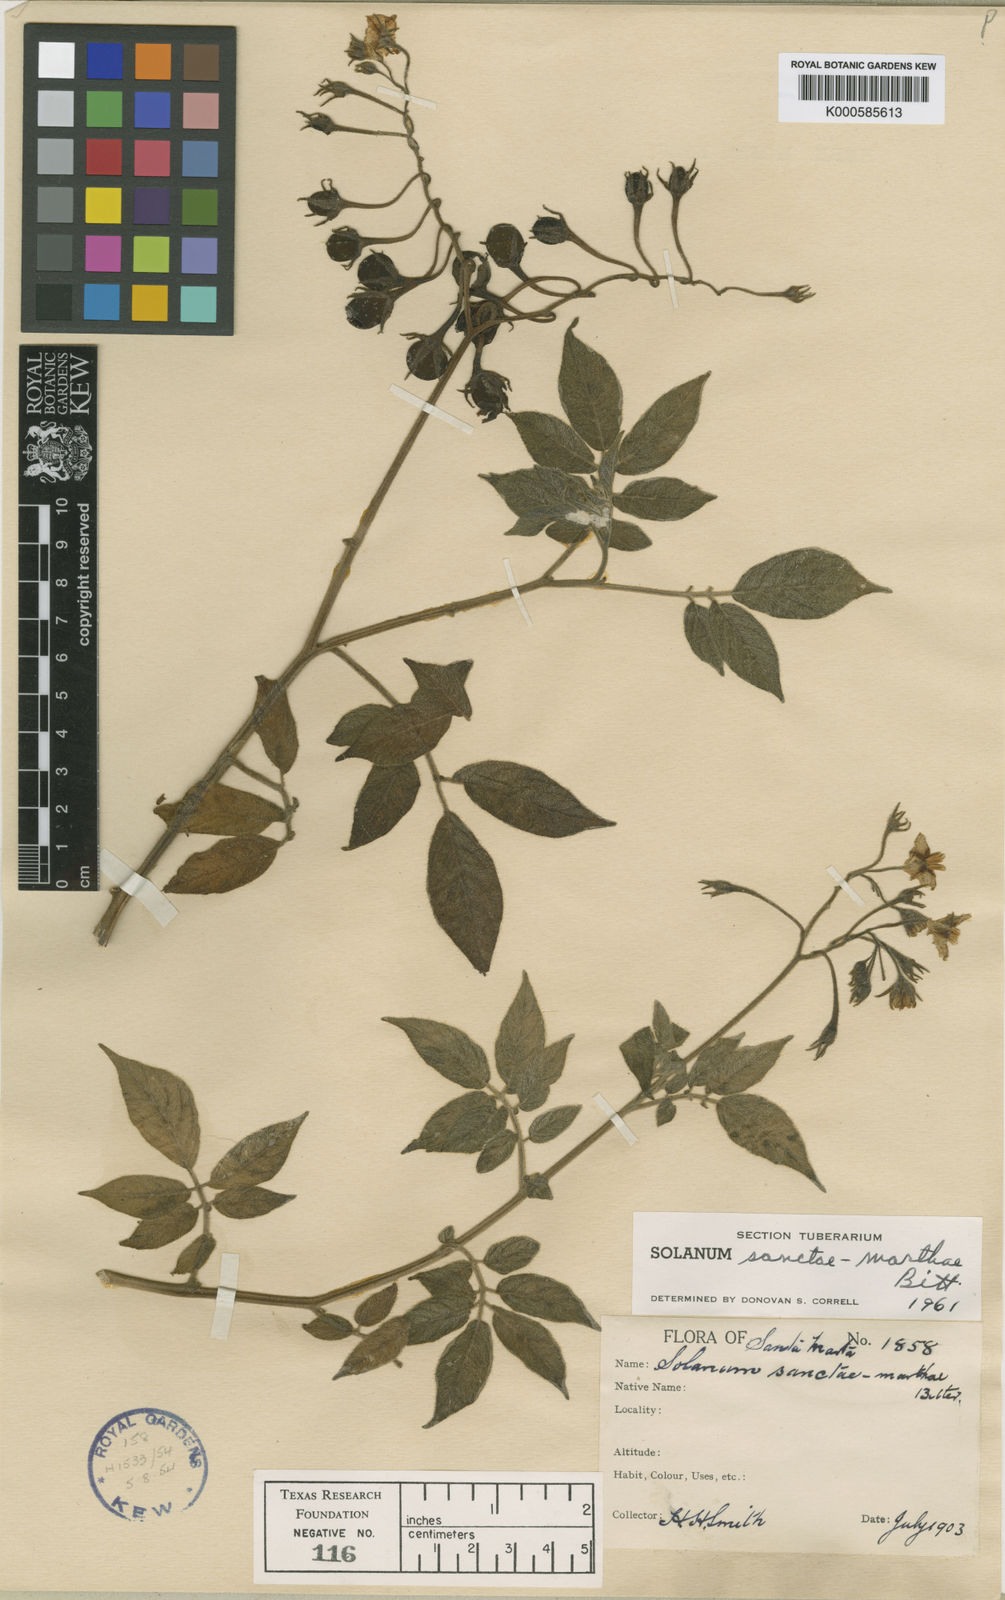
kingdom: Plantae
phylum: Tracheophyta
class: Magnoliopsida
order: Solanales
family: Solanaceae
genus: Solanum
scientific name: Solanum sanctae-marthae
